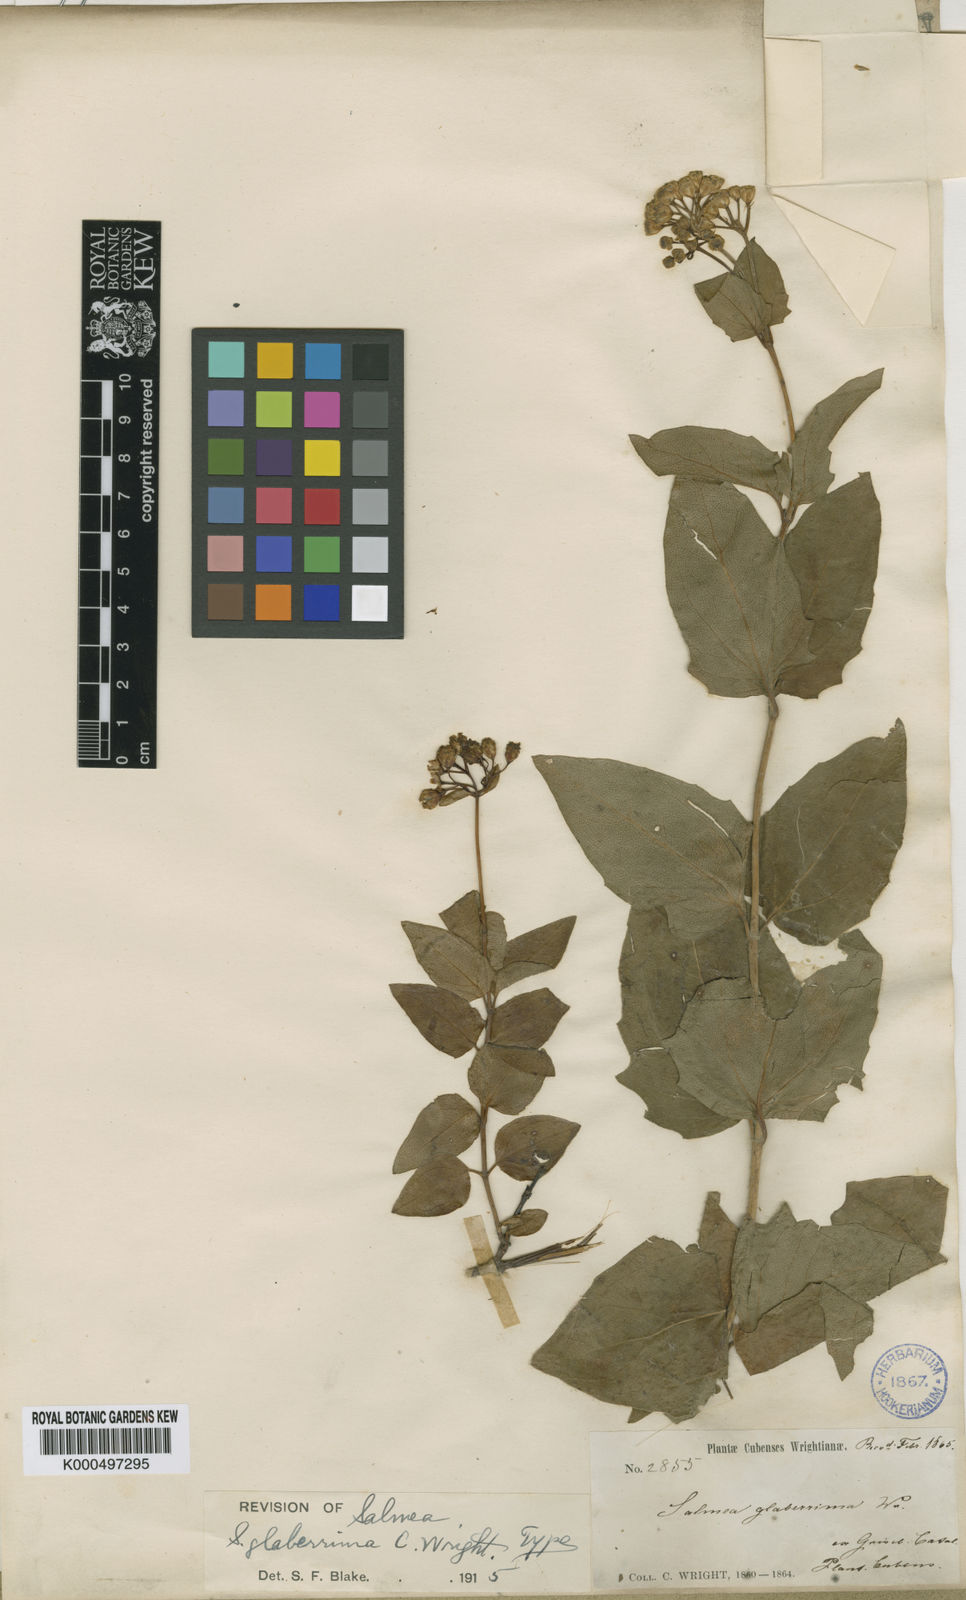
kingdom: Plantae
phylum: Tracheophyta
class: Magnoliopsida
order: Asterales
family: Asteraceae
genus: Salmea
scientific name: Salmea
